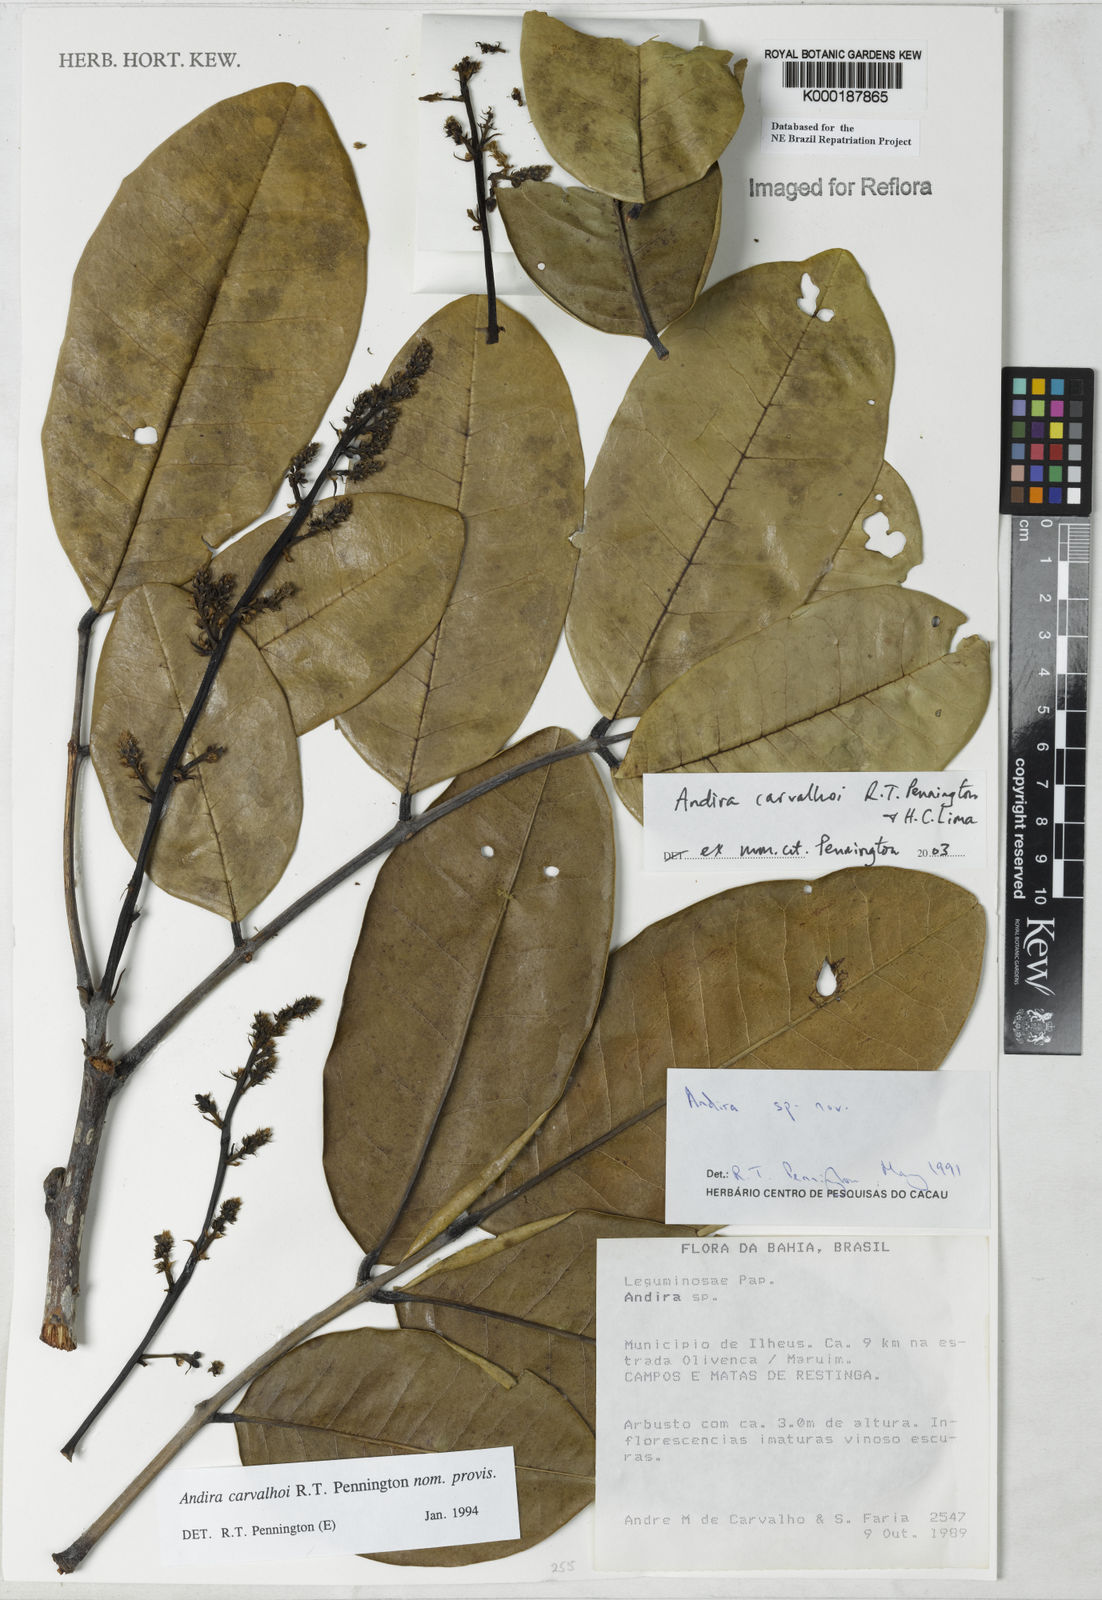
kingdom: Plantae
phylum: Tracheophyta
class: Magnoliopsida
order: Fabales
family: Fabaceae
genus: Andira
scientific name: Andira carvalhoi
